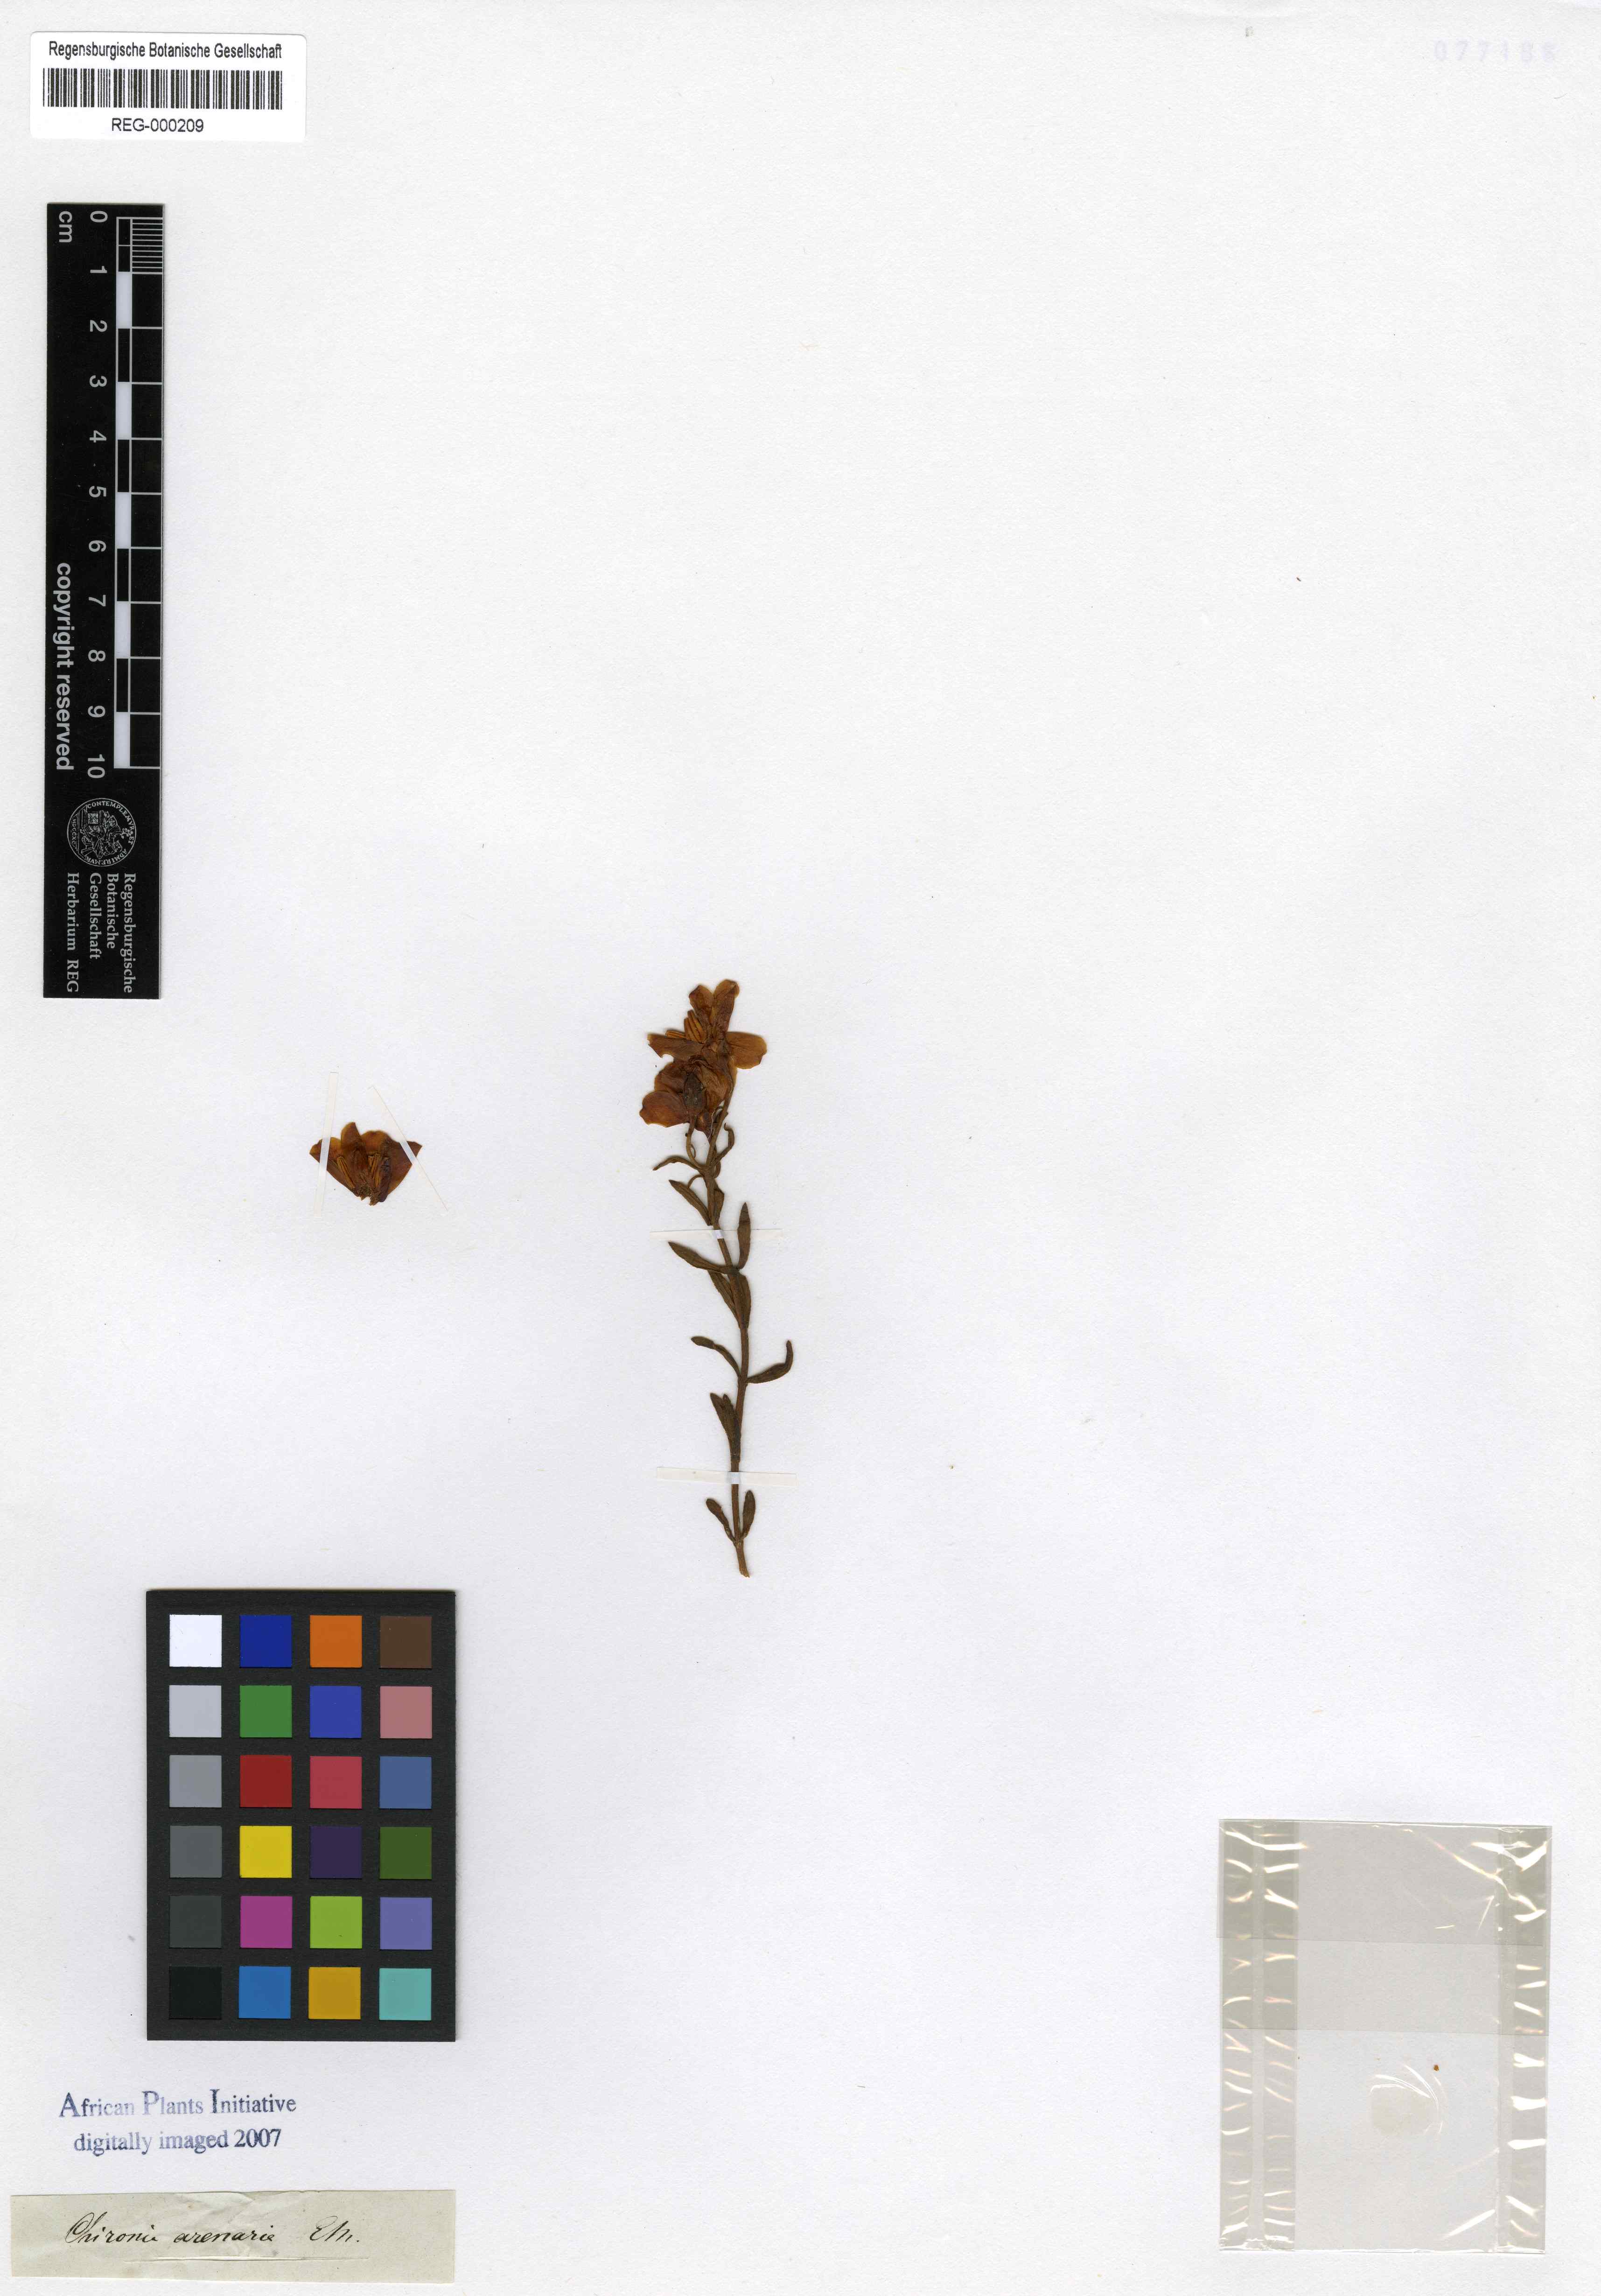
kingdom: Plantae
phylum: Tracheophyta
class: Magnoliopsida
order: Gentianales
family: Gentianaceae
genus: Chironia
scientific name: Chironia arenaria
